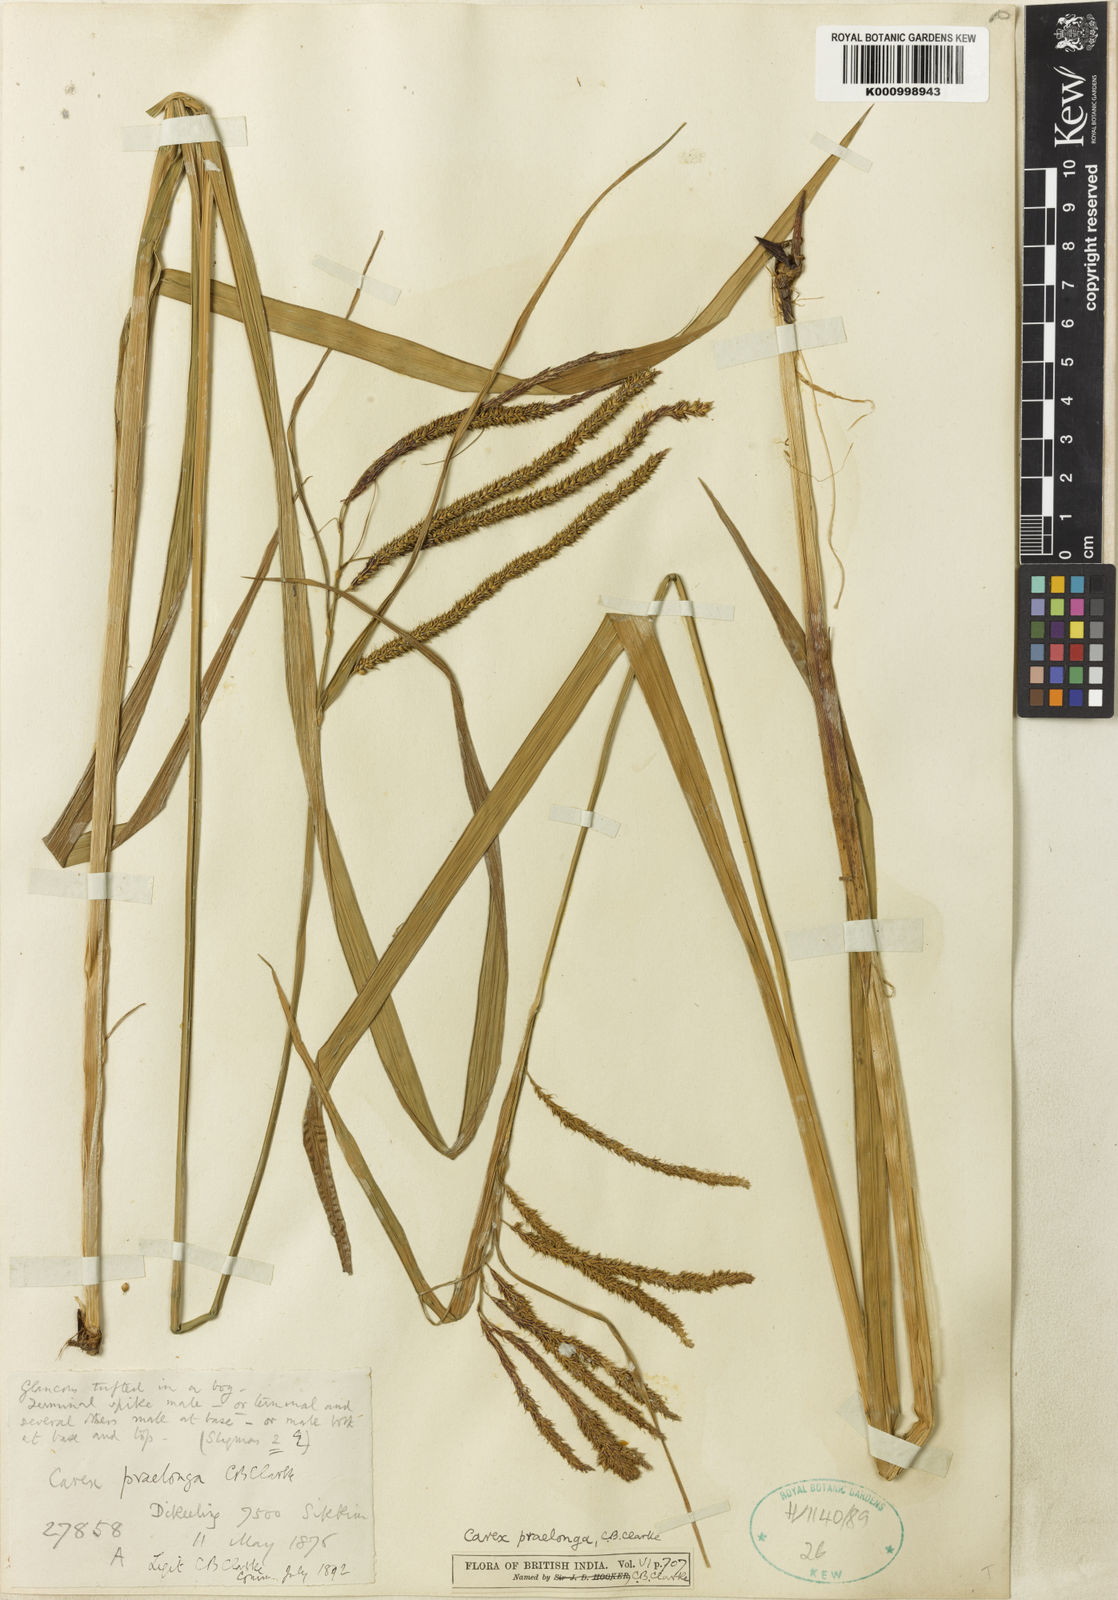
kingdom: Plantae
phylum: Tracheophyta
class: Liliopsida
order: Poales
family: Cyperaceae
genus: Carex
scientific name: Carex praelonga
